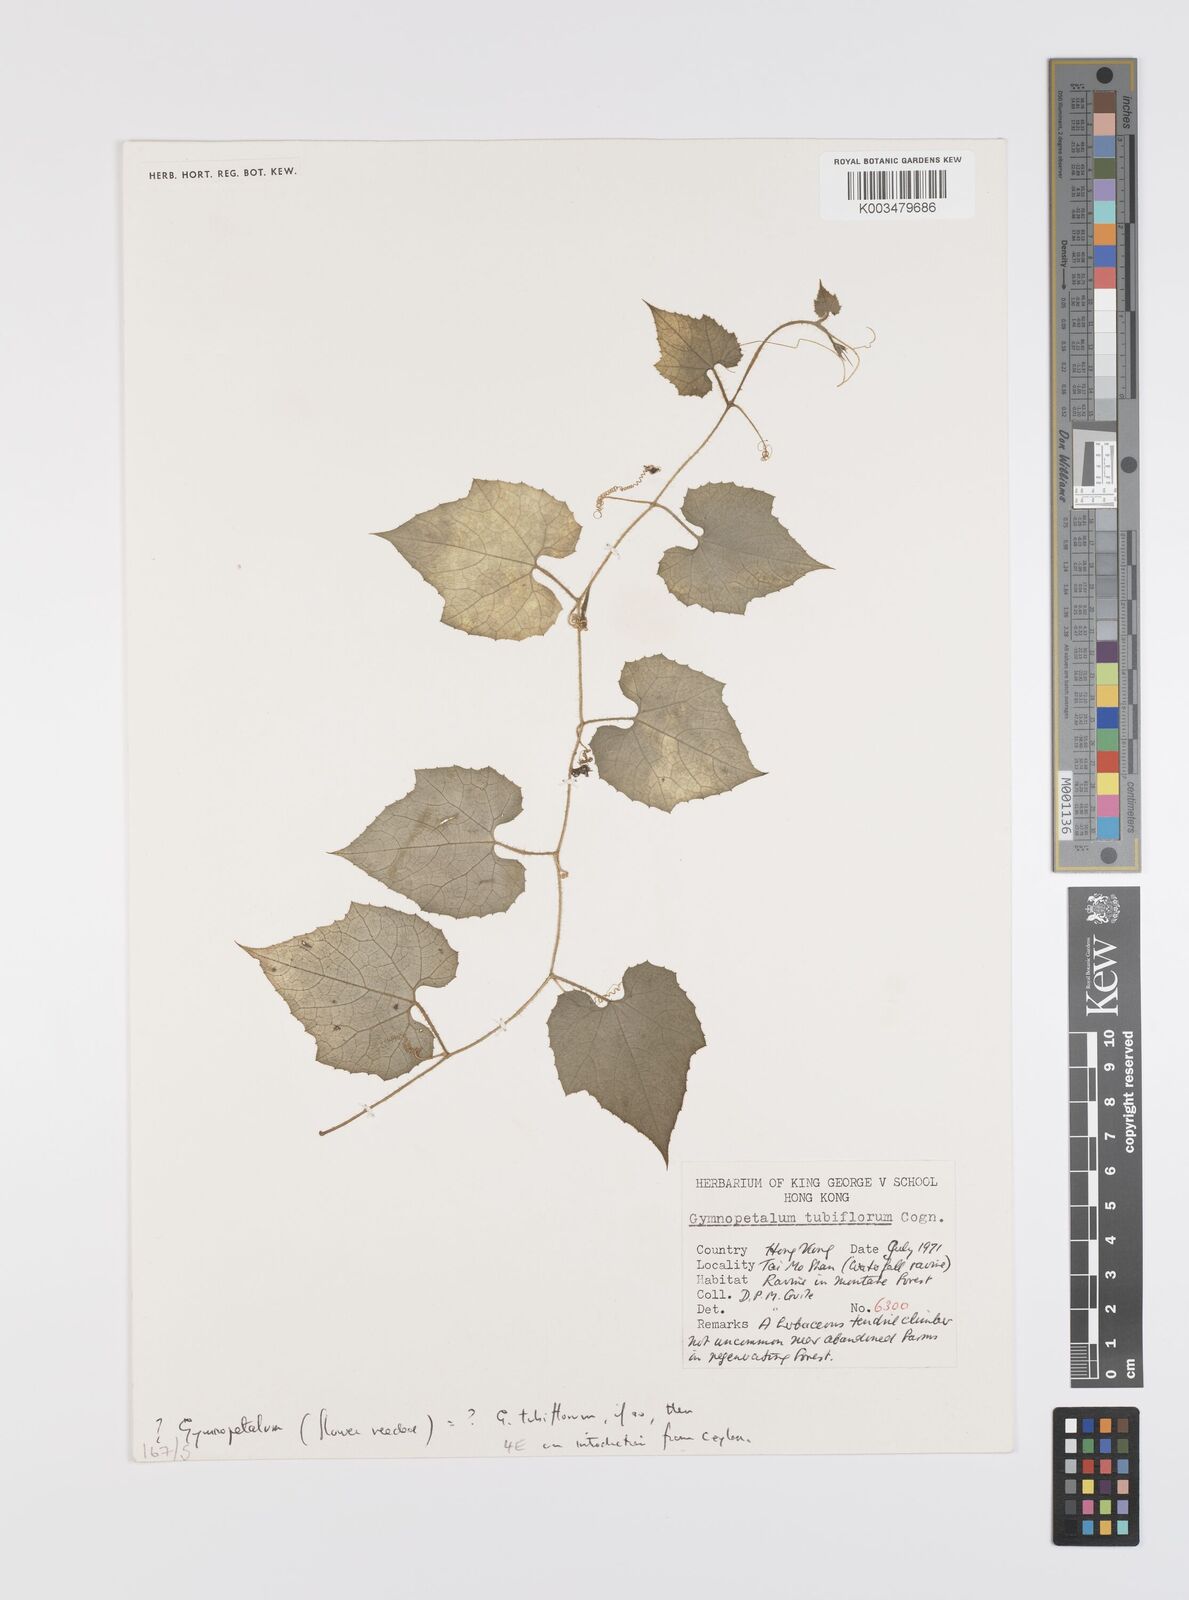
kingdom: Plantae
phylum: Tracheophyta
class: Magnoliopsida
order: Cucurbitales
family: Cucurbitaceae
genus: Trichosanthes
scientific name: Trichosanthes tubiflora
